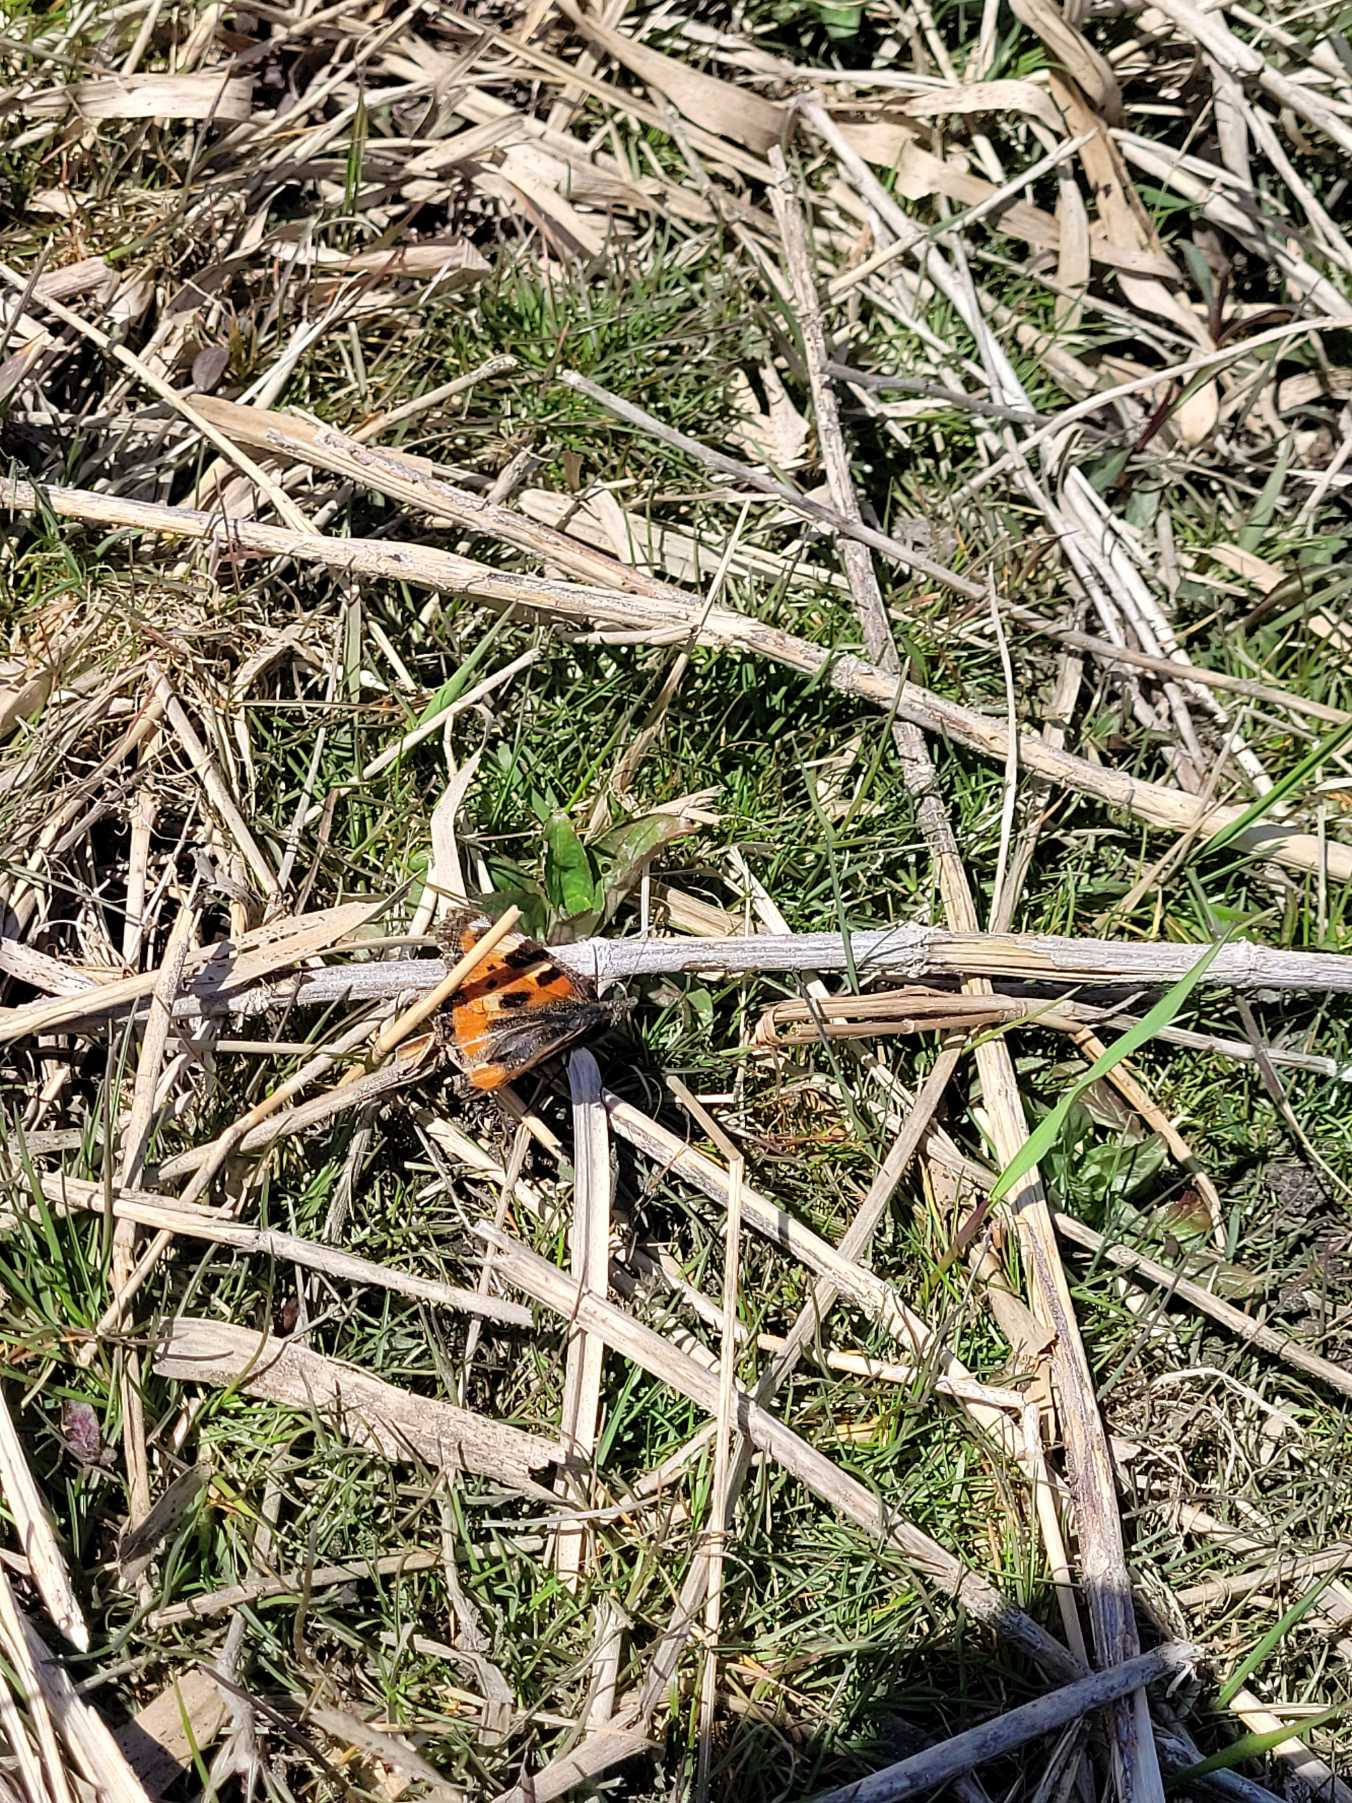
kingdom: Animalia
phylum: Arthropoda
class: Insecta
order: Lepidoptera
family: Nymphalidae
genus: Aglais
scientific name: Aglais urticae
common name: Nældens takvinge
